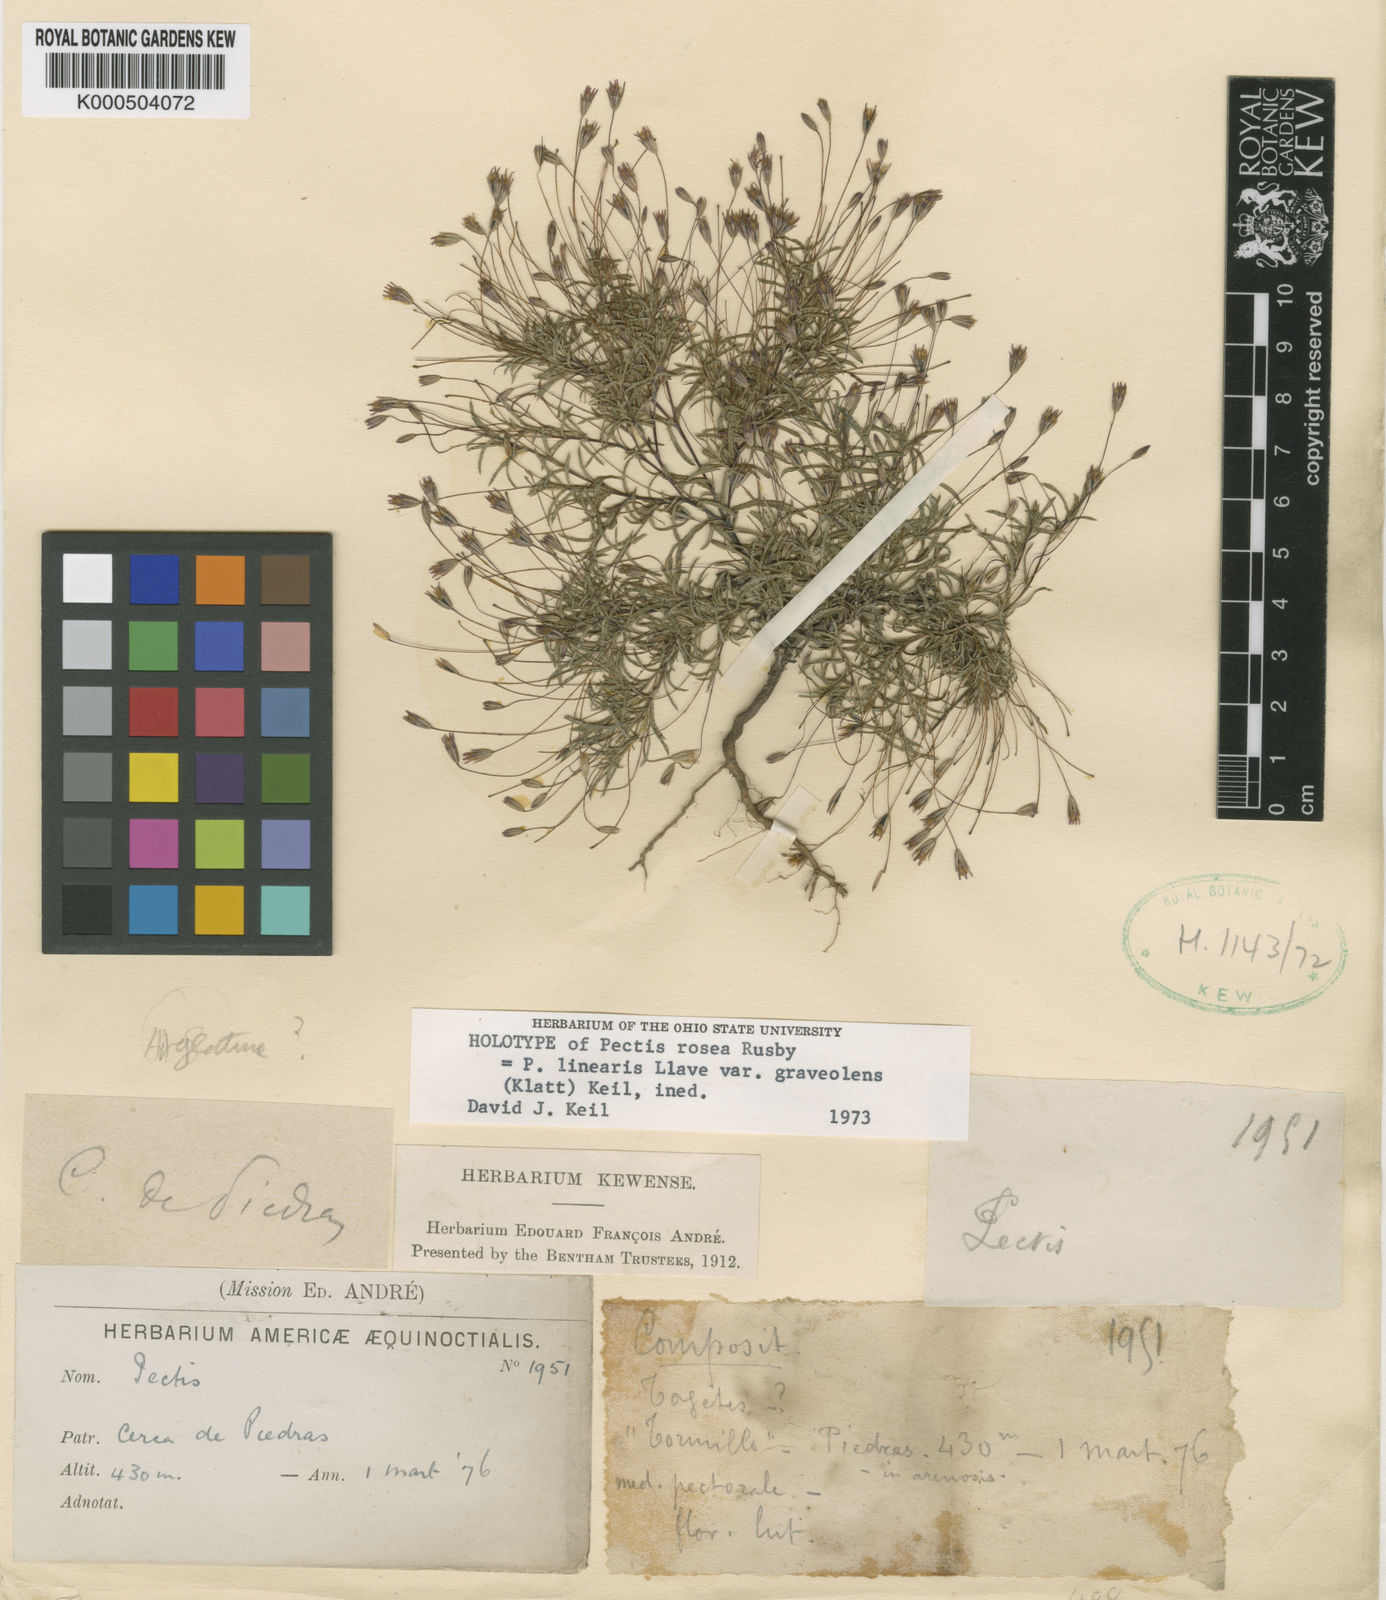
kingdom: Plantae
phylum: Tracheophyta
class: Magnoliopsida
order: Asterales
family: Asteraceae
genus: Pectis
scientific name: Pectis linearis
